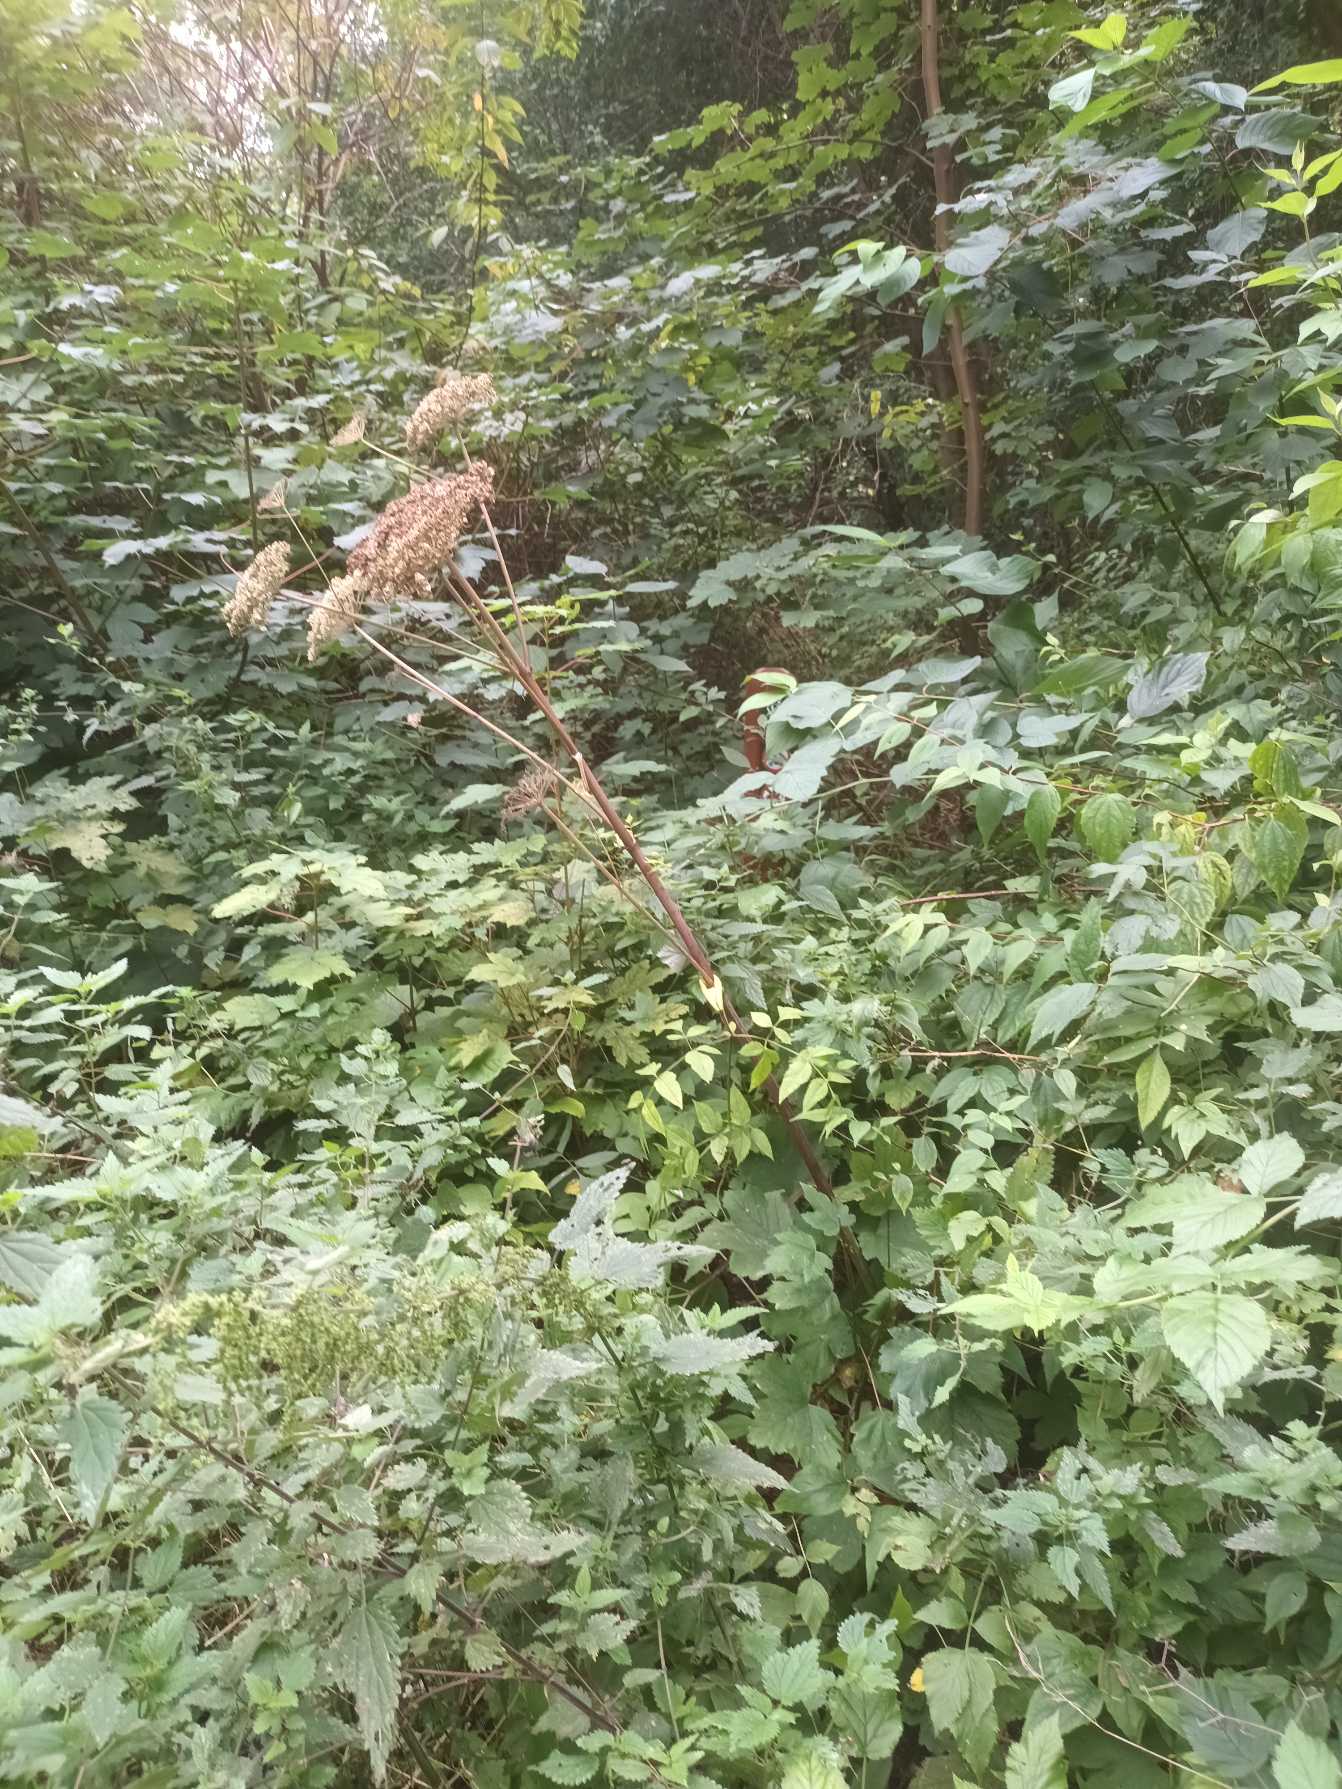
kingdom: Plantae
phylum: Tracheophyta
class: Magnoliopsida
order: Apiales
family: Apiaceae
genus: Angelica
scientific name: Angelica sylvestris
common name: Angelik
